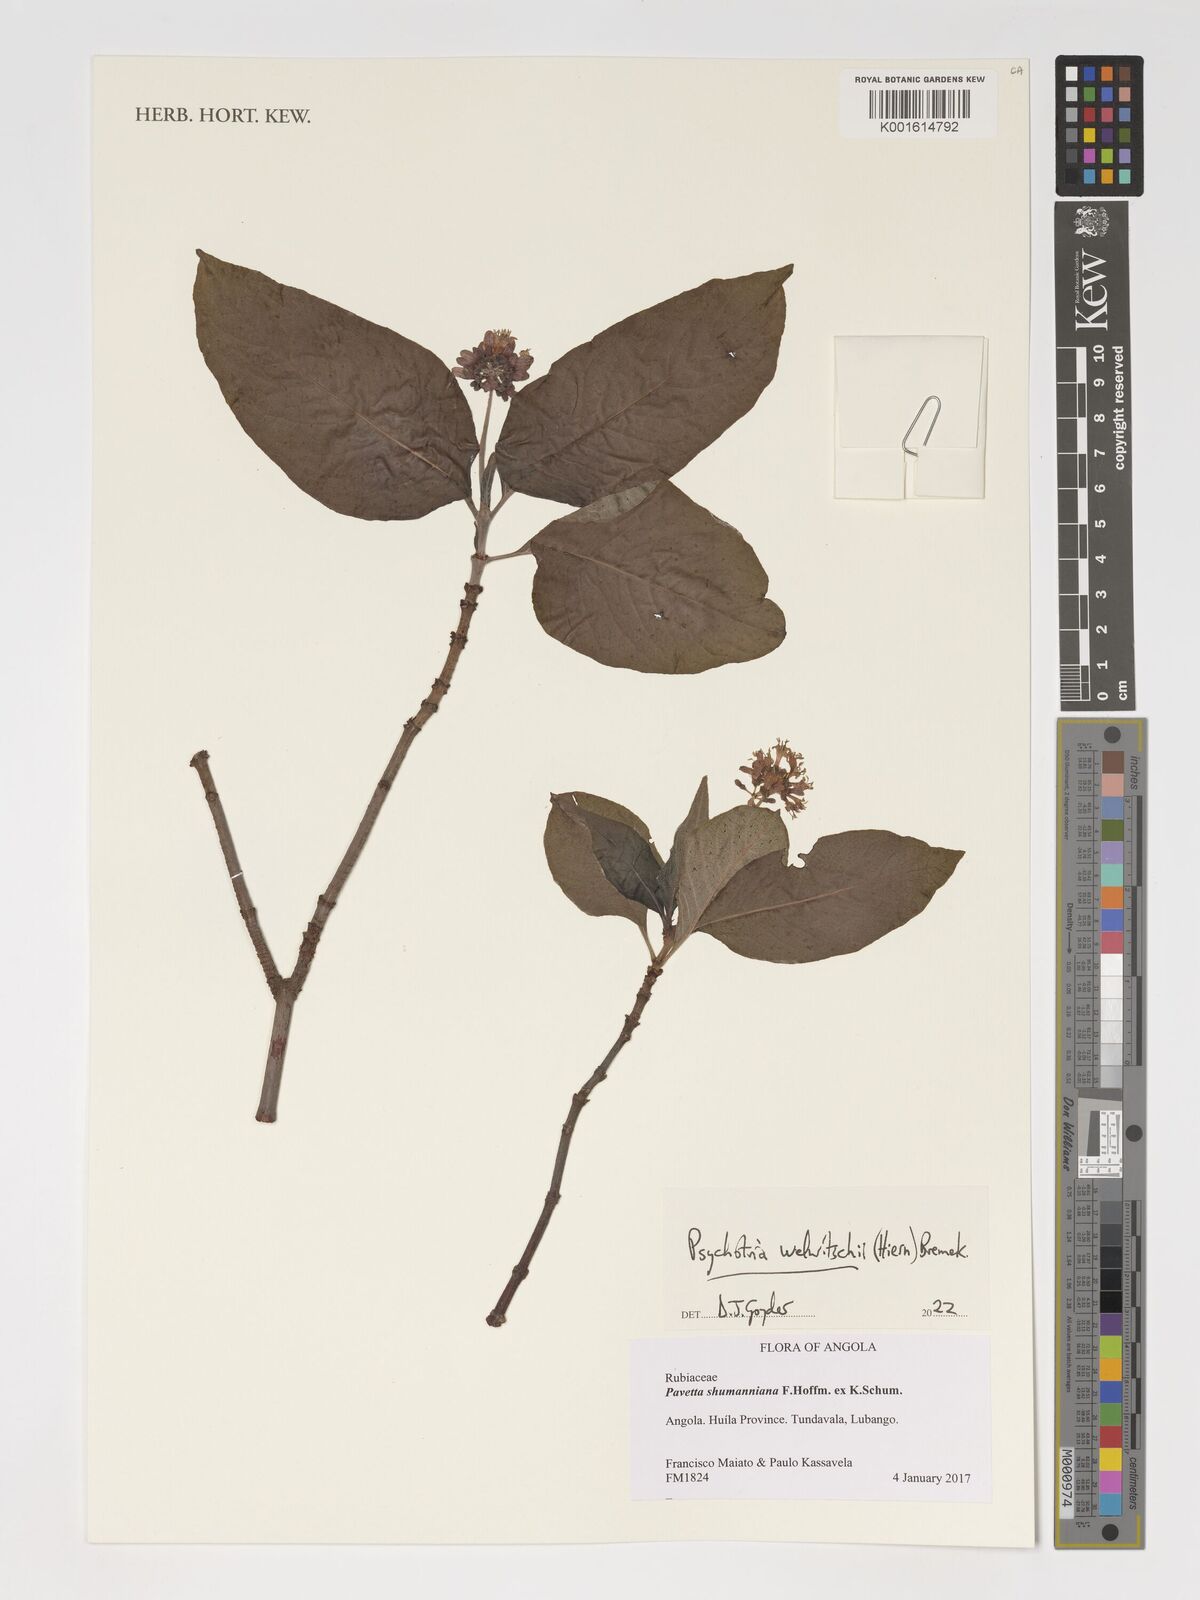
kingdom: Plantae
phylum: Tracheophyta
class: Magnoliopsida
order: Gentianales
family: Rubiaceae
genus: Psychotria
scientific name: Psychotria welwitschii
